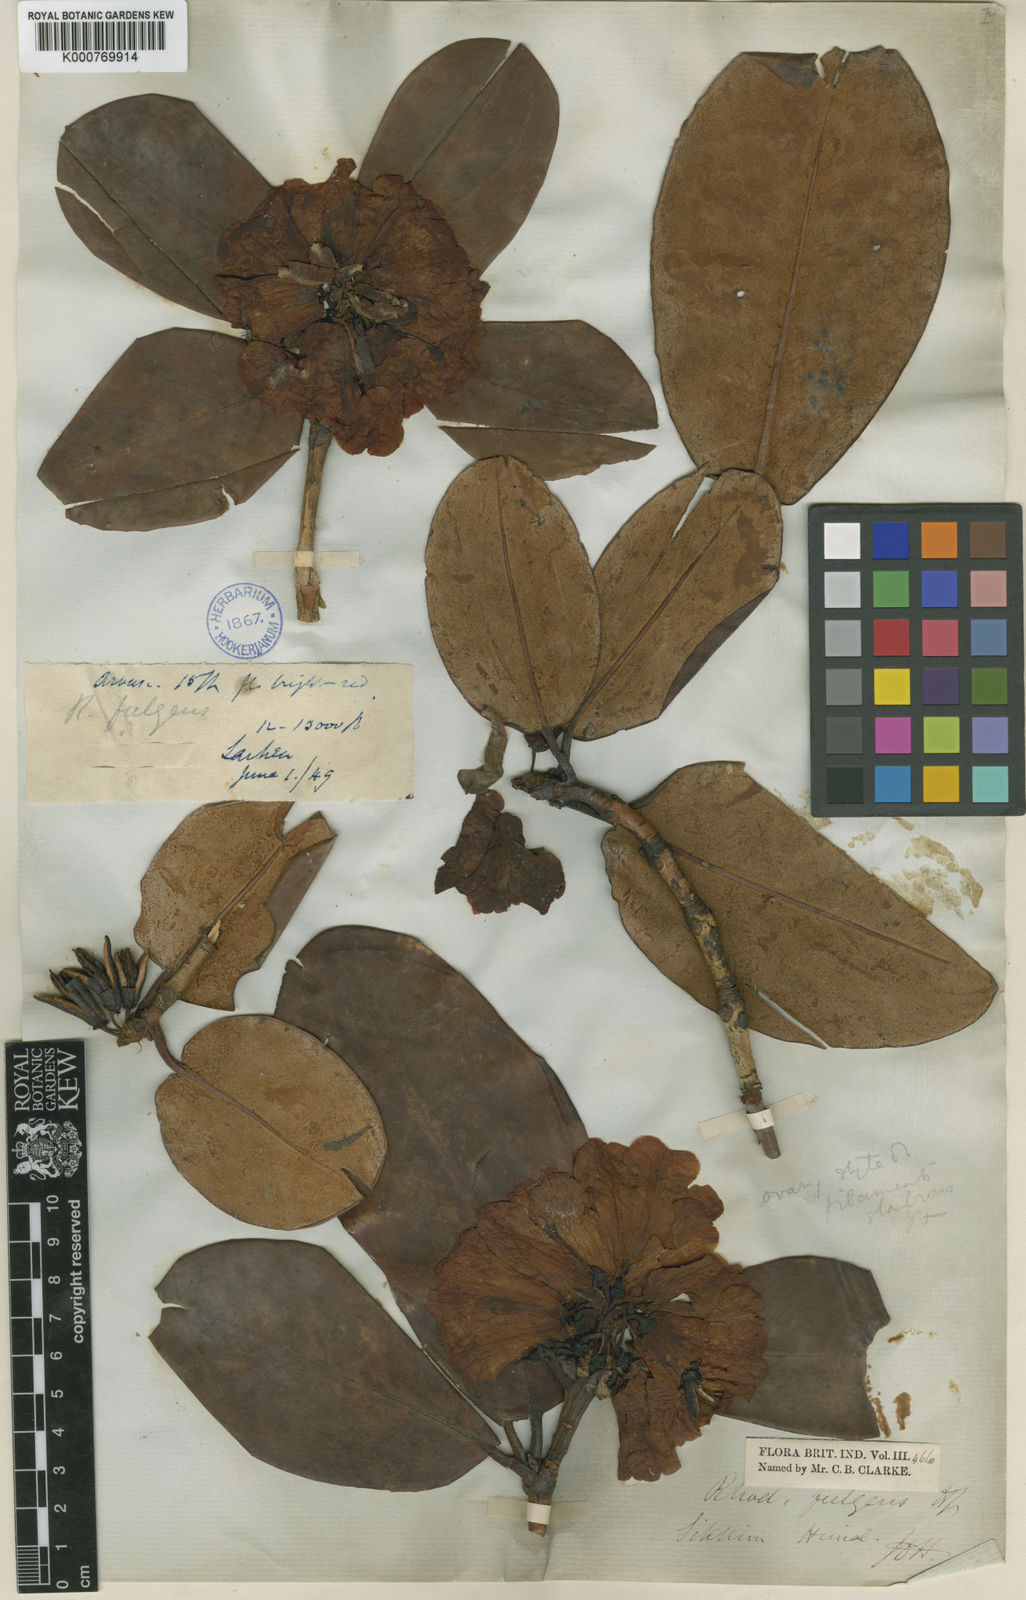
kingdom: Plantae
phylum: Tracheophyta
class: Magnoliopsida
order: Ericales
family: Ericaceae
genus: Rhododendron
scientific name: Rhododendron
